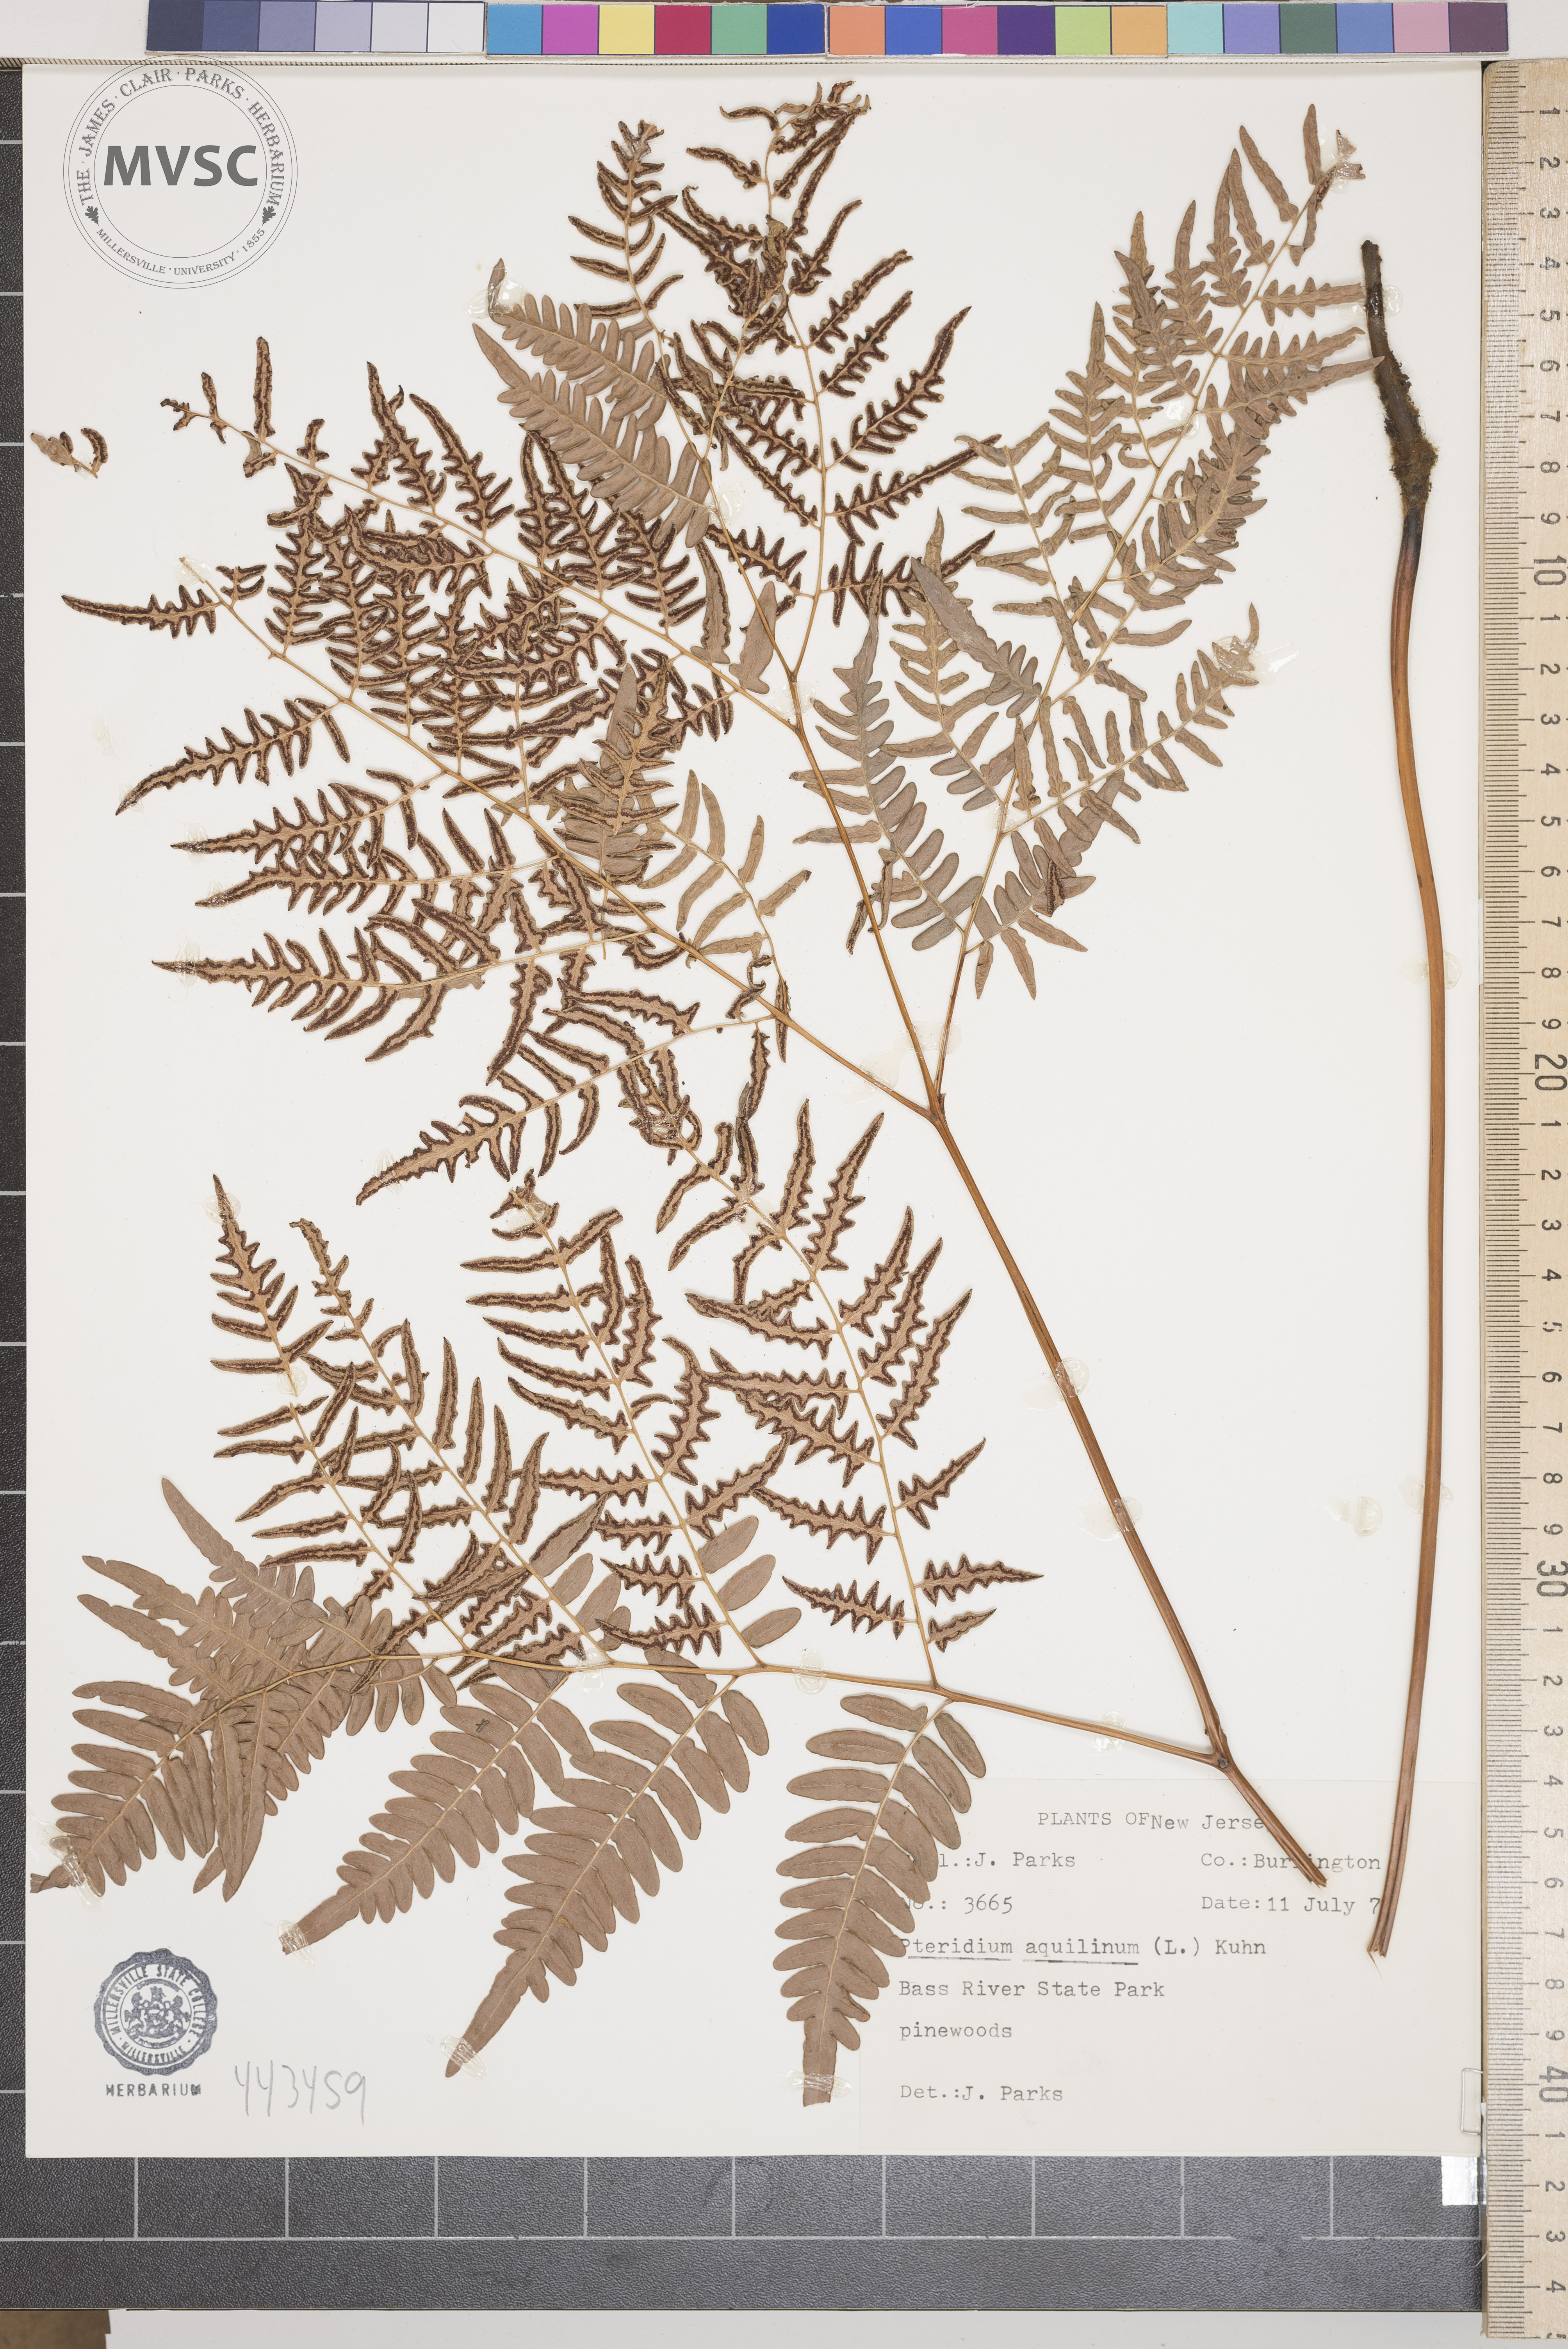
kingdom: Plantae
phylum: Tracheophyta
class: Polypodiopsida
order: Polypodiales
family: Dennstaedtiaceae
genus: Pteridium
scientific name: Pteridium aquilinum
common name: Bracken
